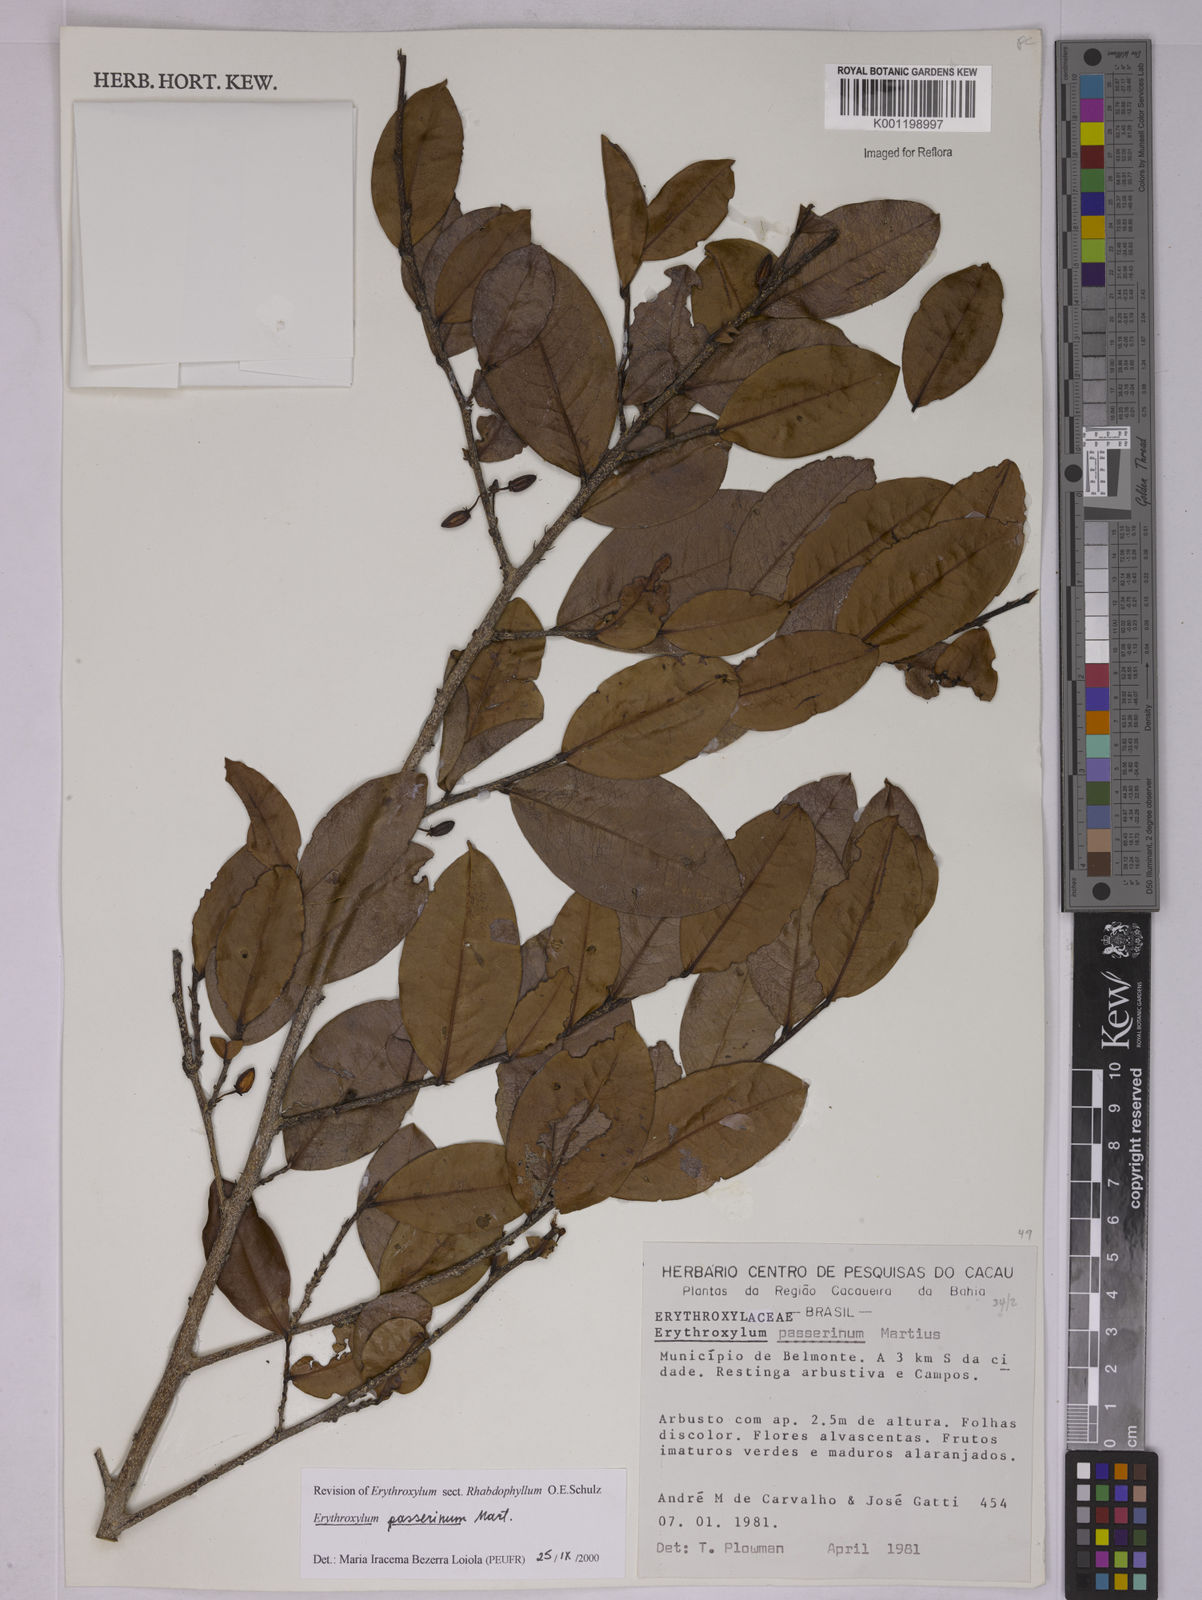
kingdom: Plantae
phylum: Tracheophyta
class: Magnoliopsida
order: Malpighiales
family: Erythroxylaceae
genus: Erythroxylum
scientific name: Erythroxylum passerinum
